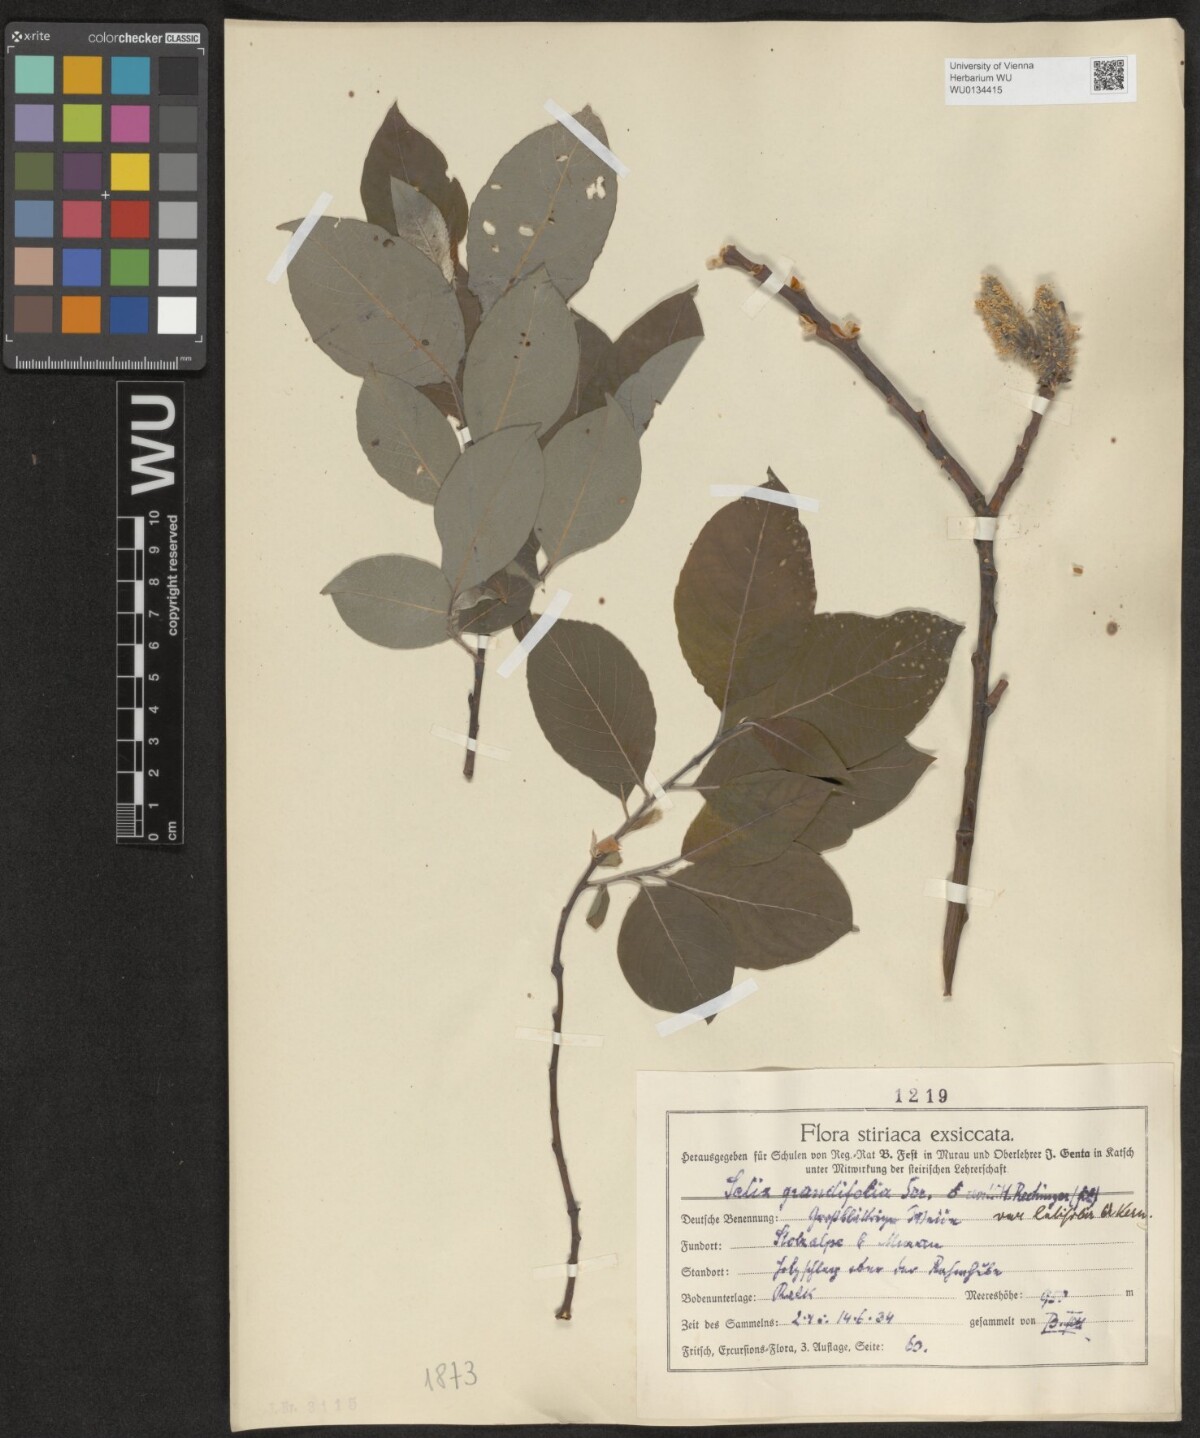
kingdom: Plantae
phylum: Tracheophyta
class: Magnoliopsida
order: Malpighiales
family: Salicaceae
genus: Salix
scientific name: Salix appendiculata
